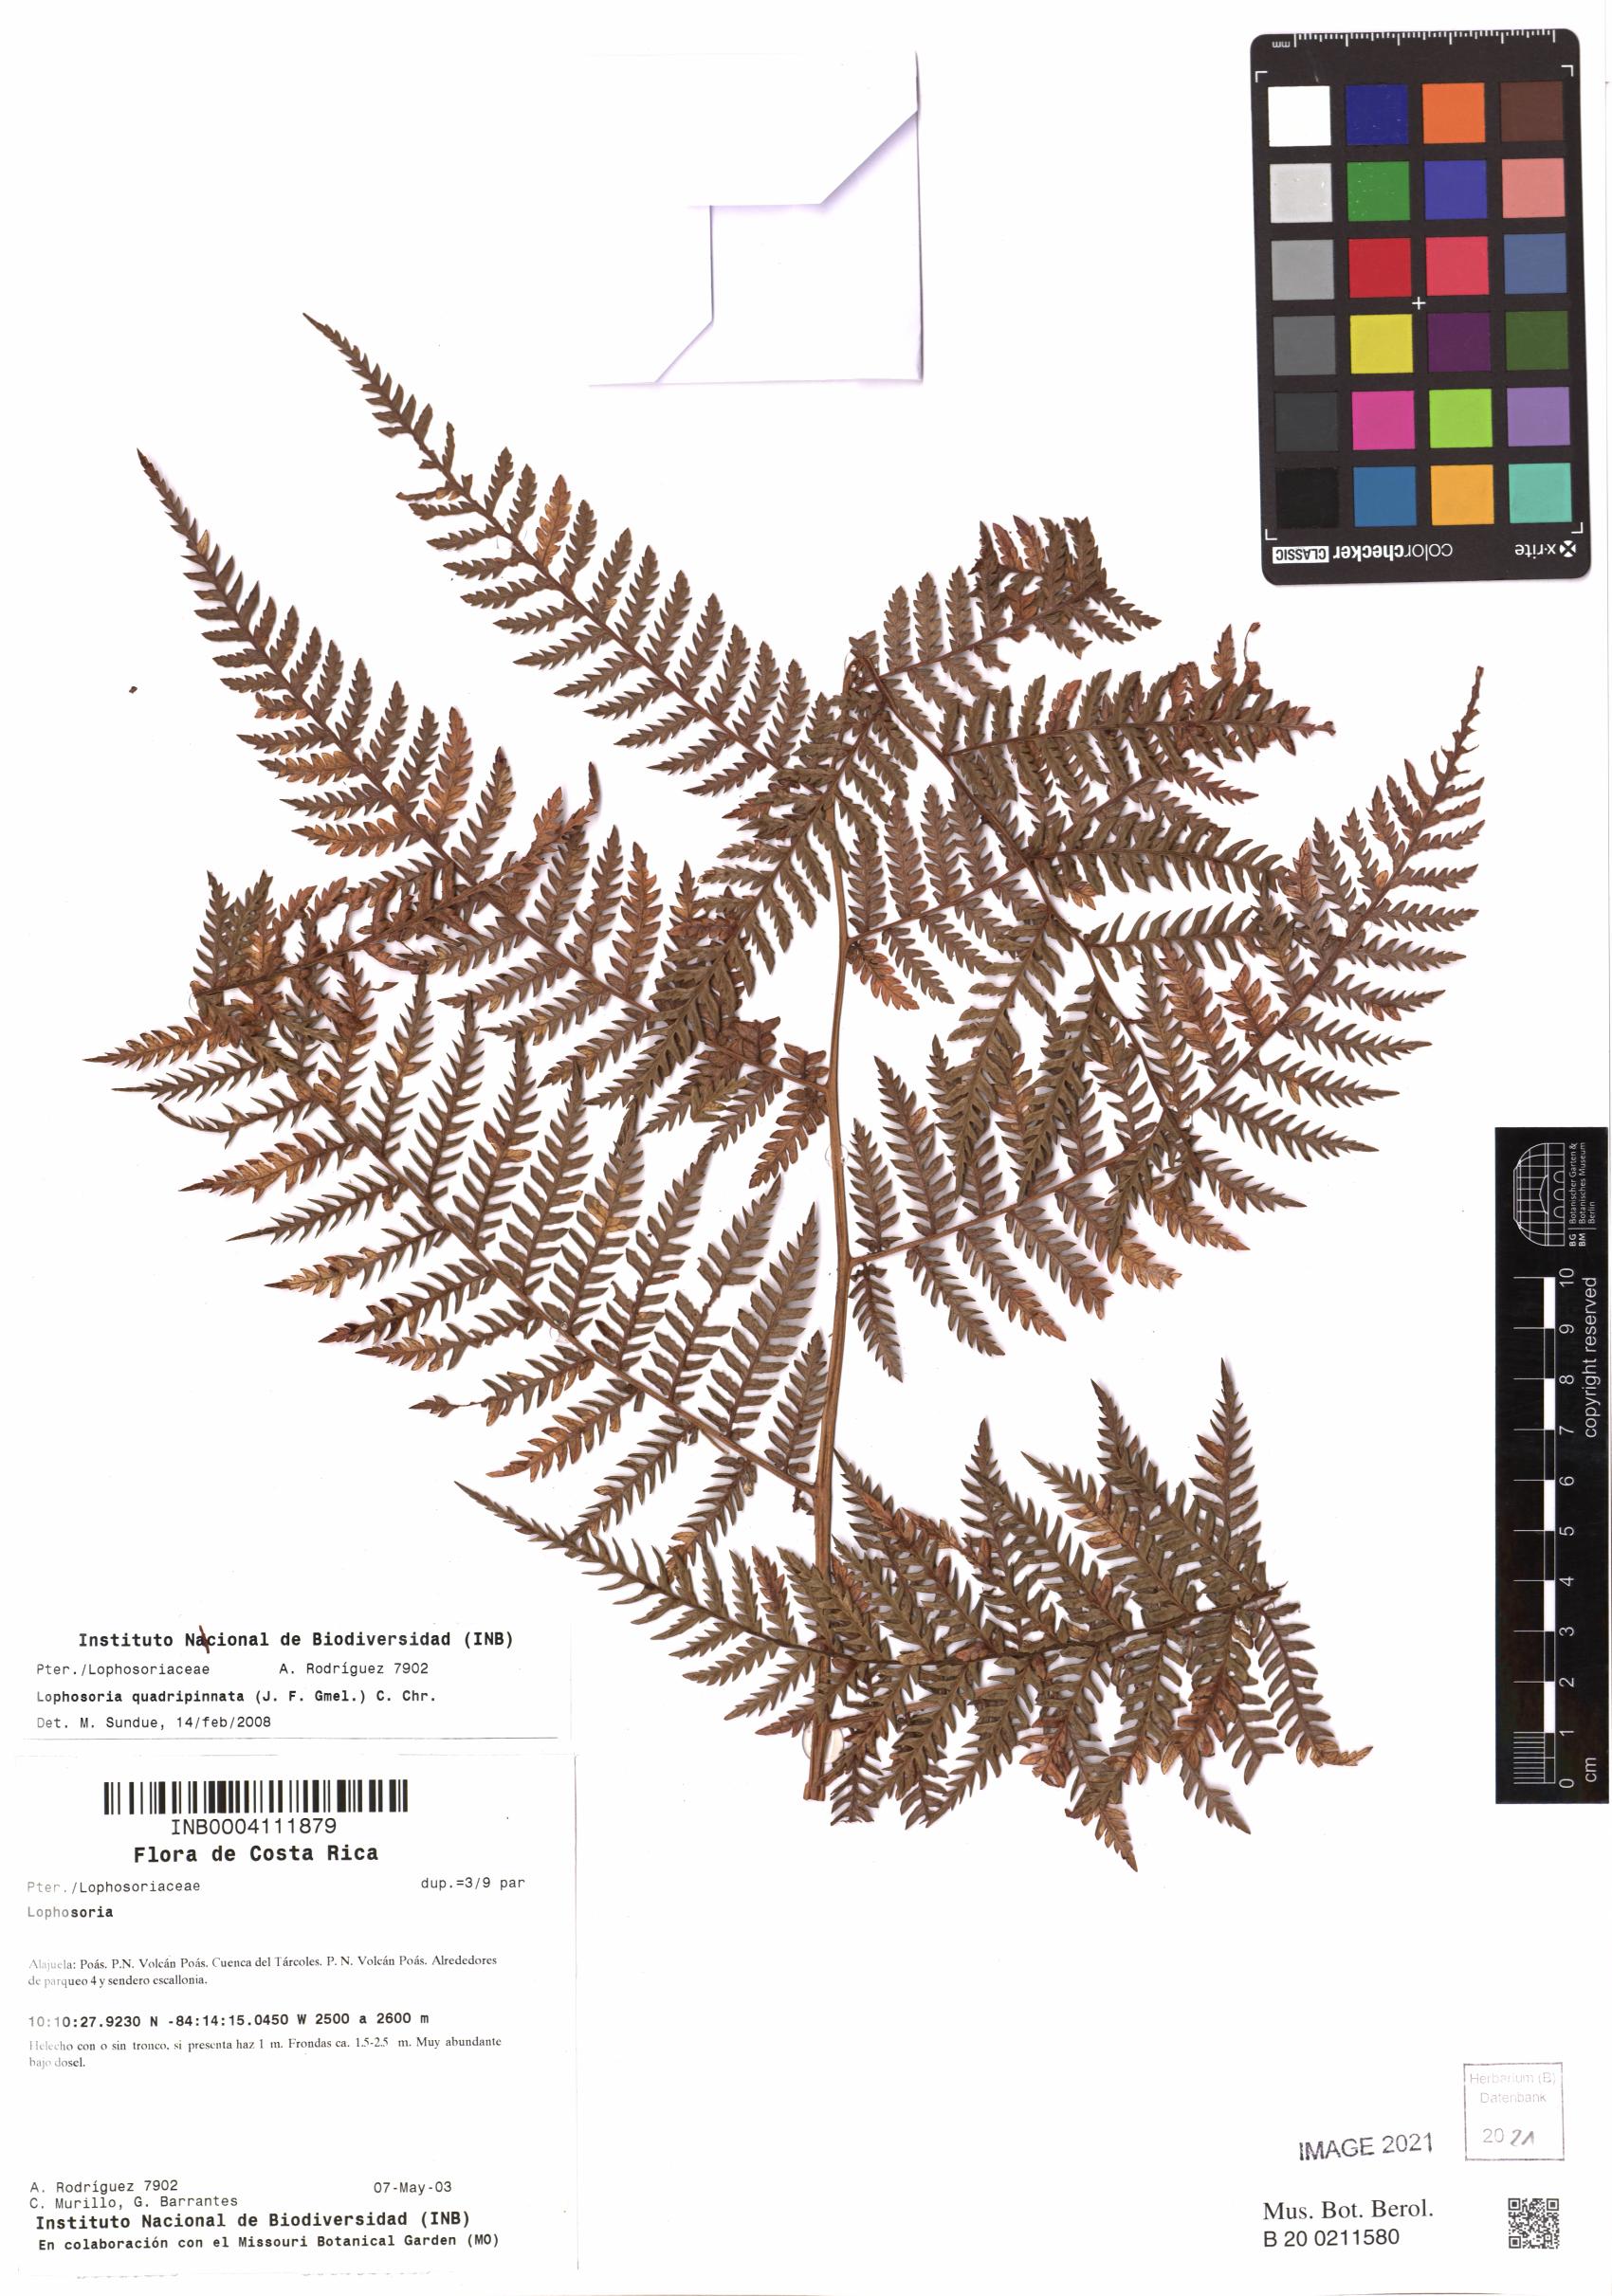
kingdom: Plantae
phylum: Tracheophyta
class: Polypodiopsida
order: Cyatheales
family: Dicksoniaceae
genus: Lophosoria
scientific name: Lophosoria quadripinnata
